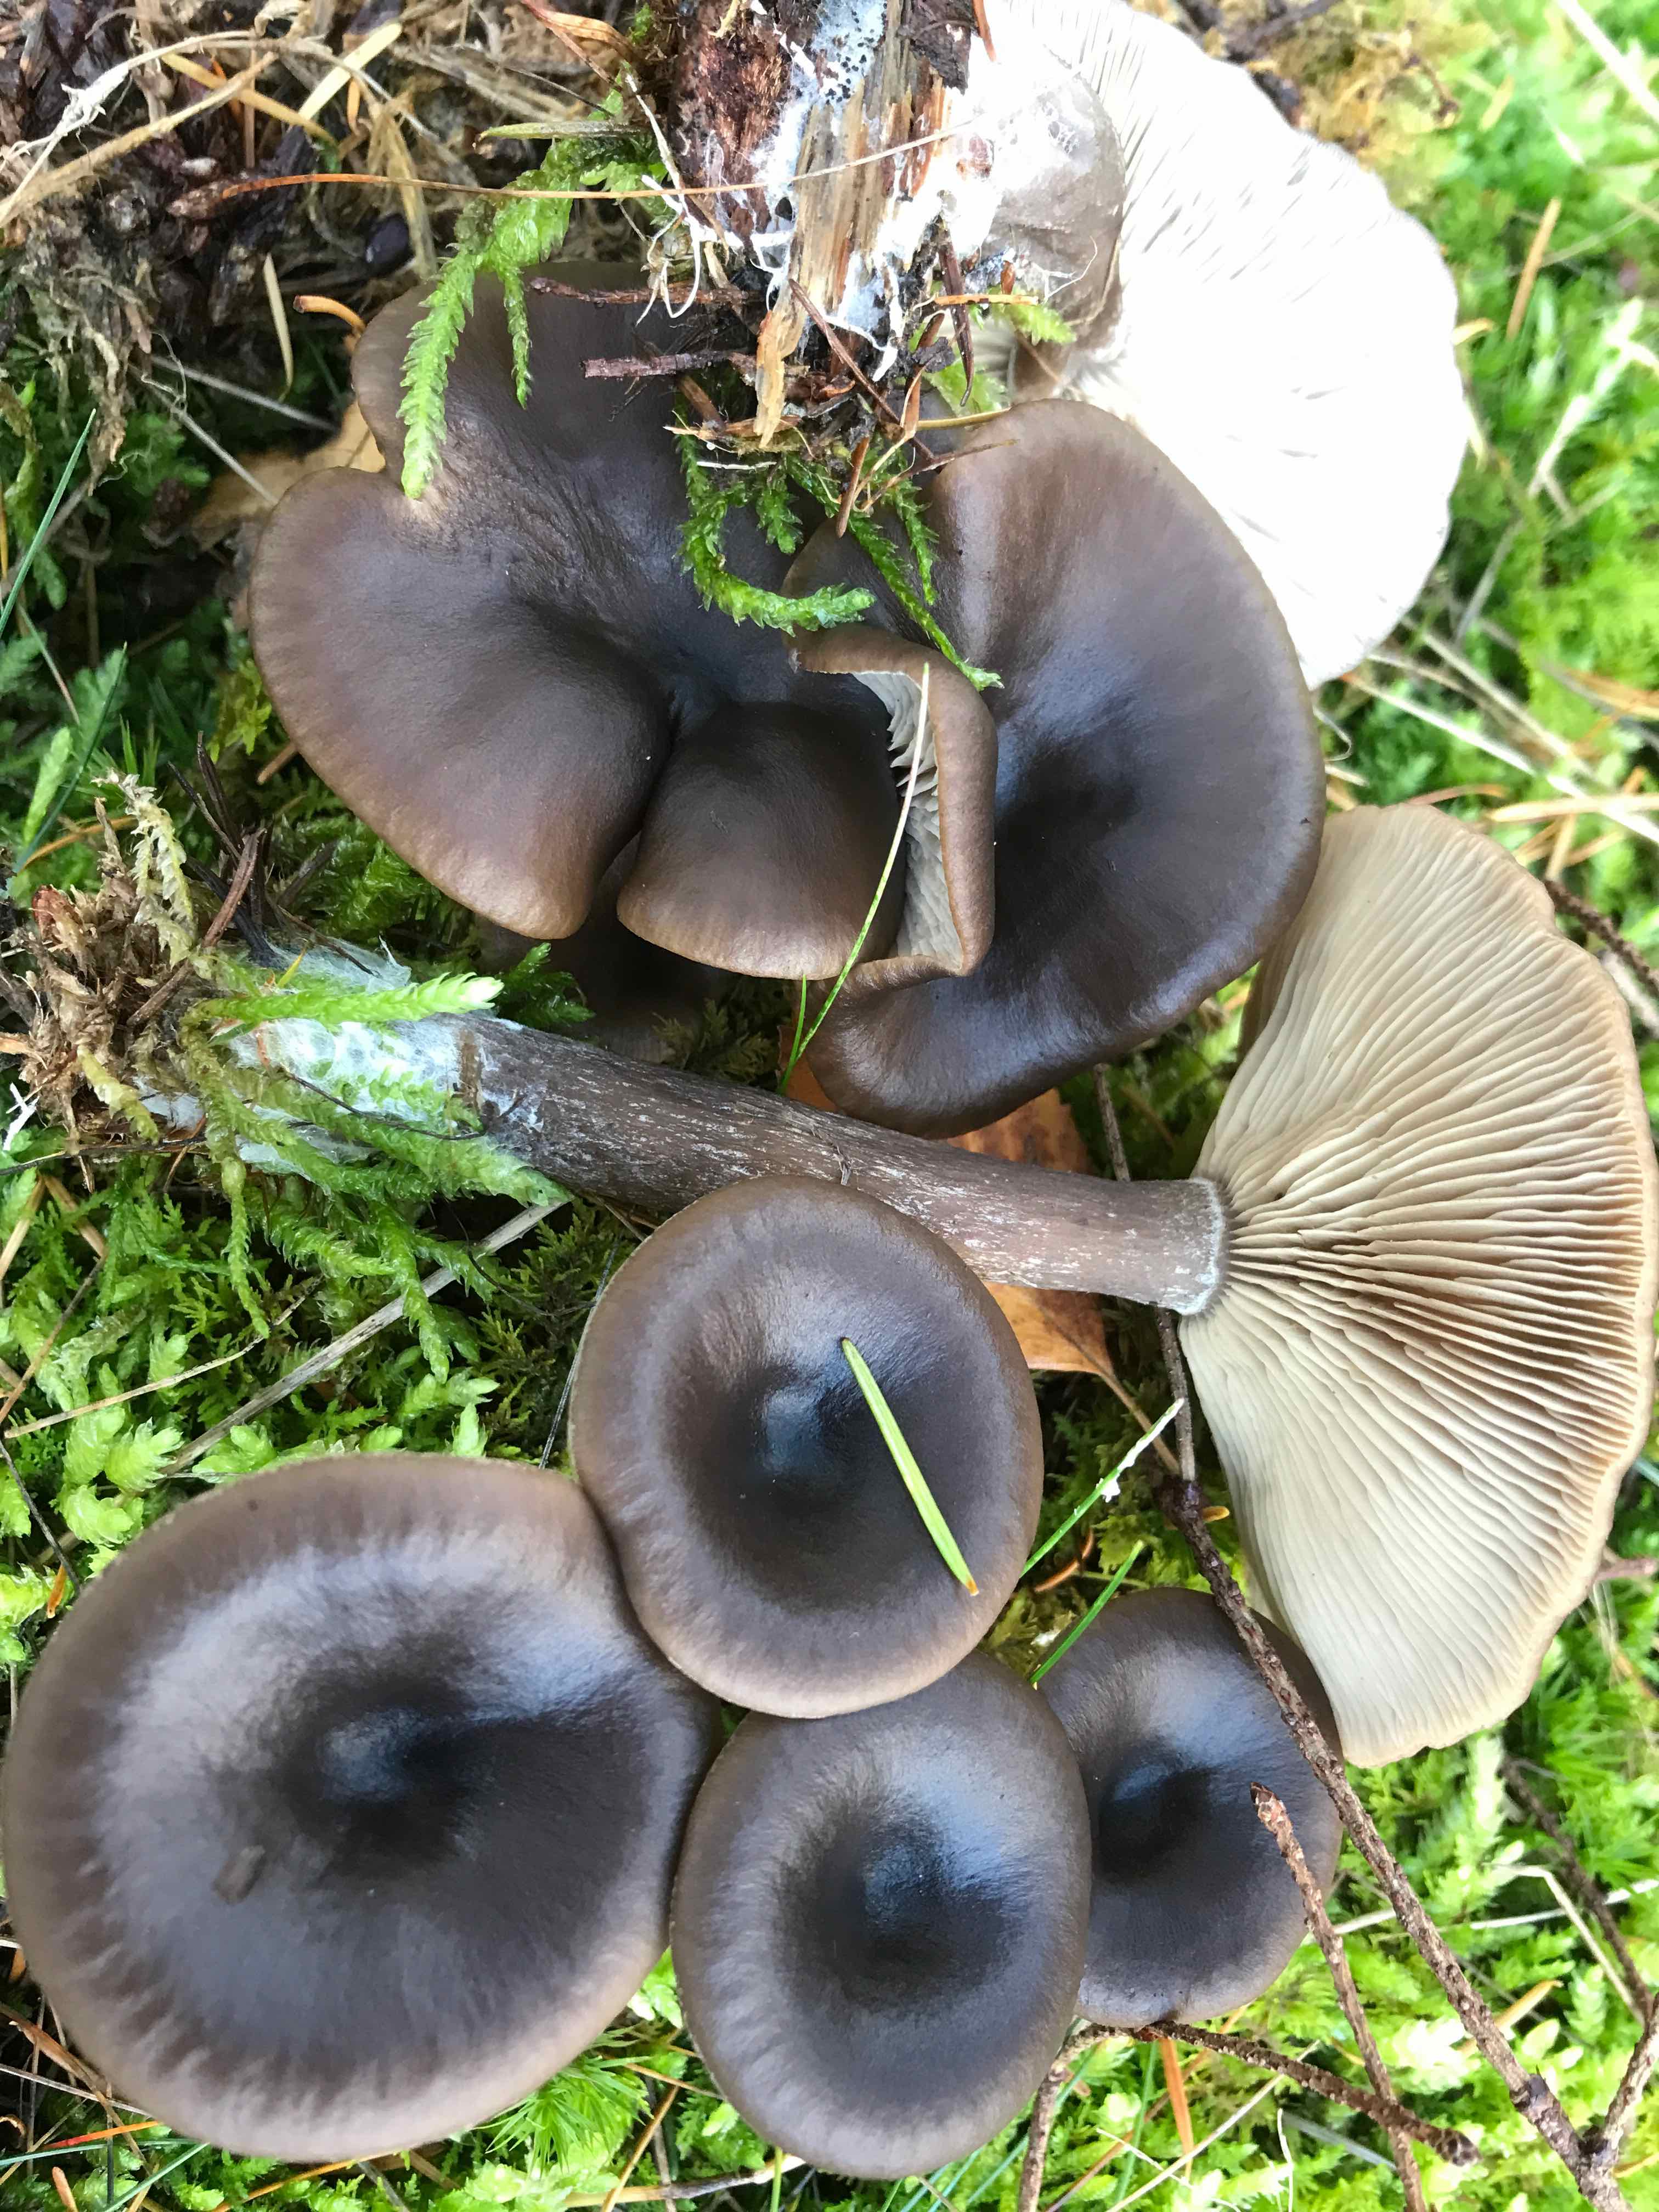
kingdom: Fungi
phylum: Basidiomycota
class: Agaricomycetes
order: Agaricales
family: Pseudoclitocybaceae
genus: Pseudoclitocybe
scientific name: Pseudoclitocybe cyathiformis
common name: almindelig bægertragthat
